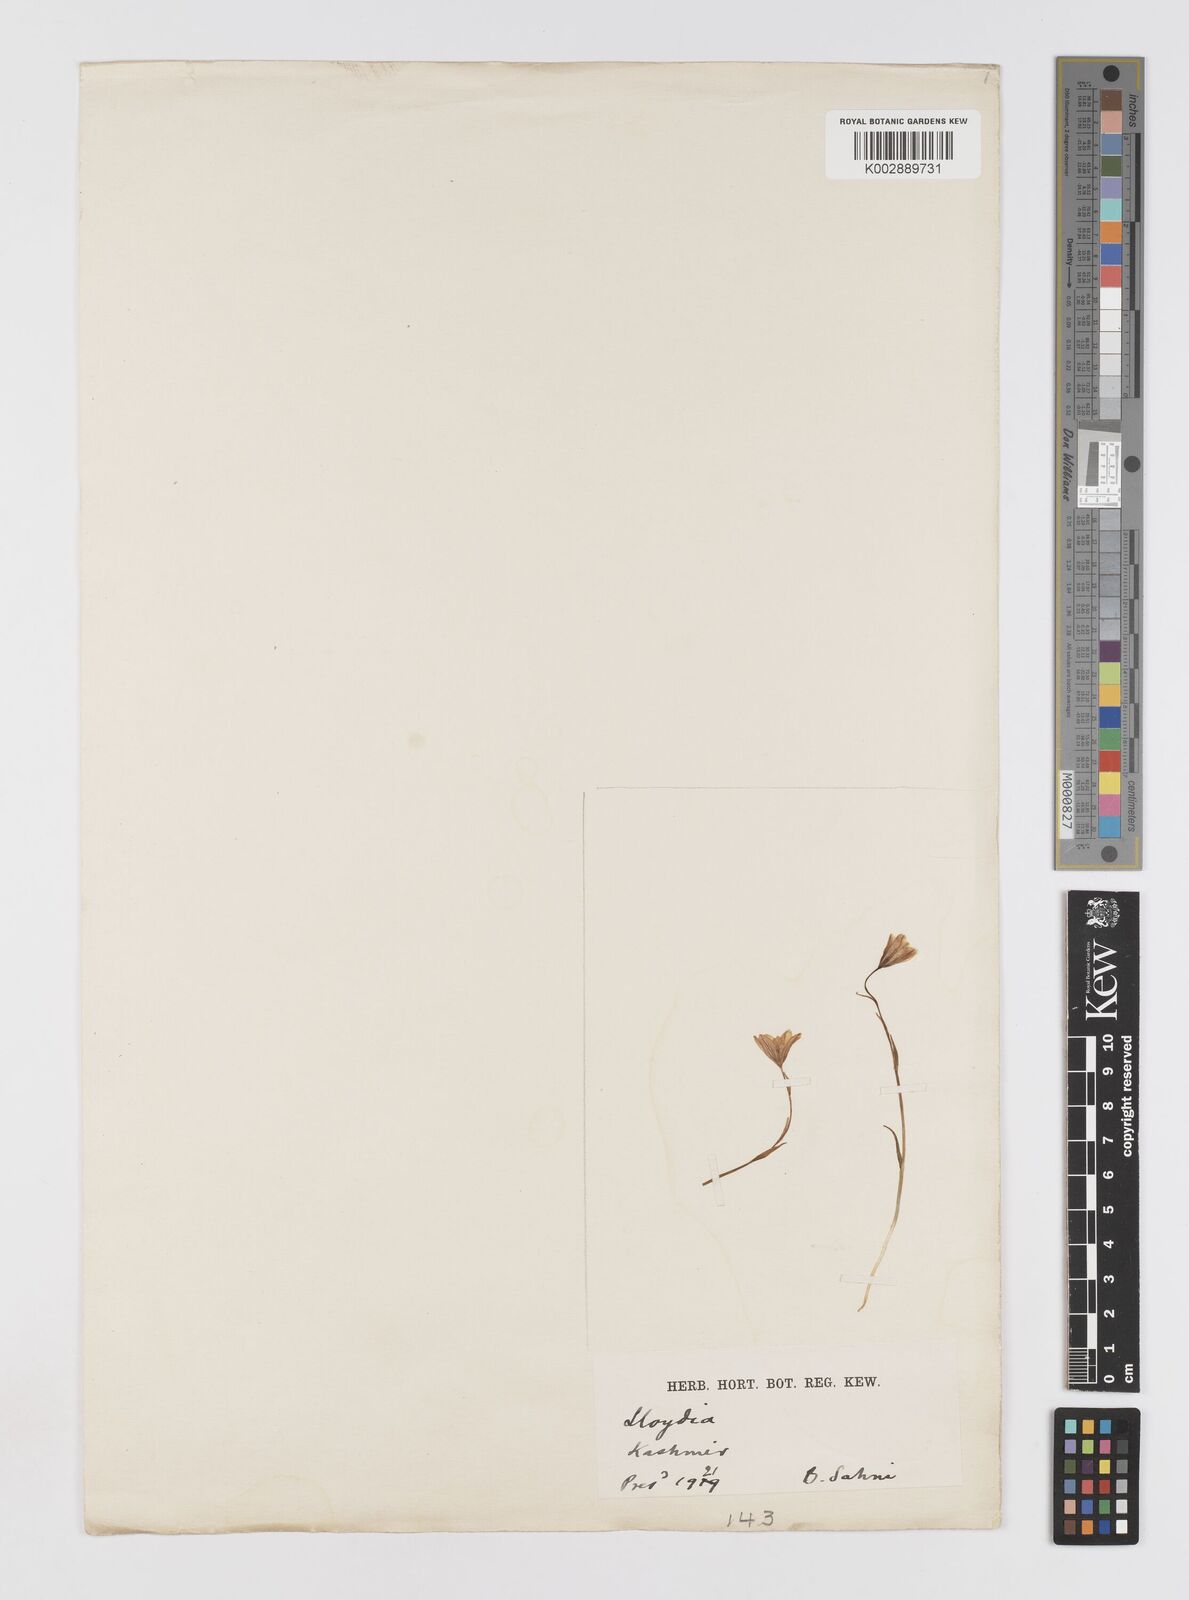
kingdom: Plantae
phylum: Tracheophyta
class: Liliopsida
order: Liliales
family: Liliaceae
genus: Gagea
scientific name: Gagea serotina
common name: Snowdon lily
